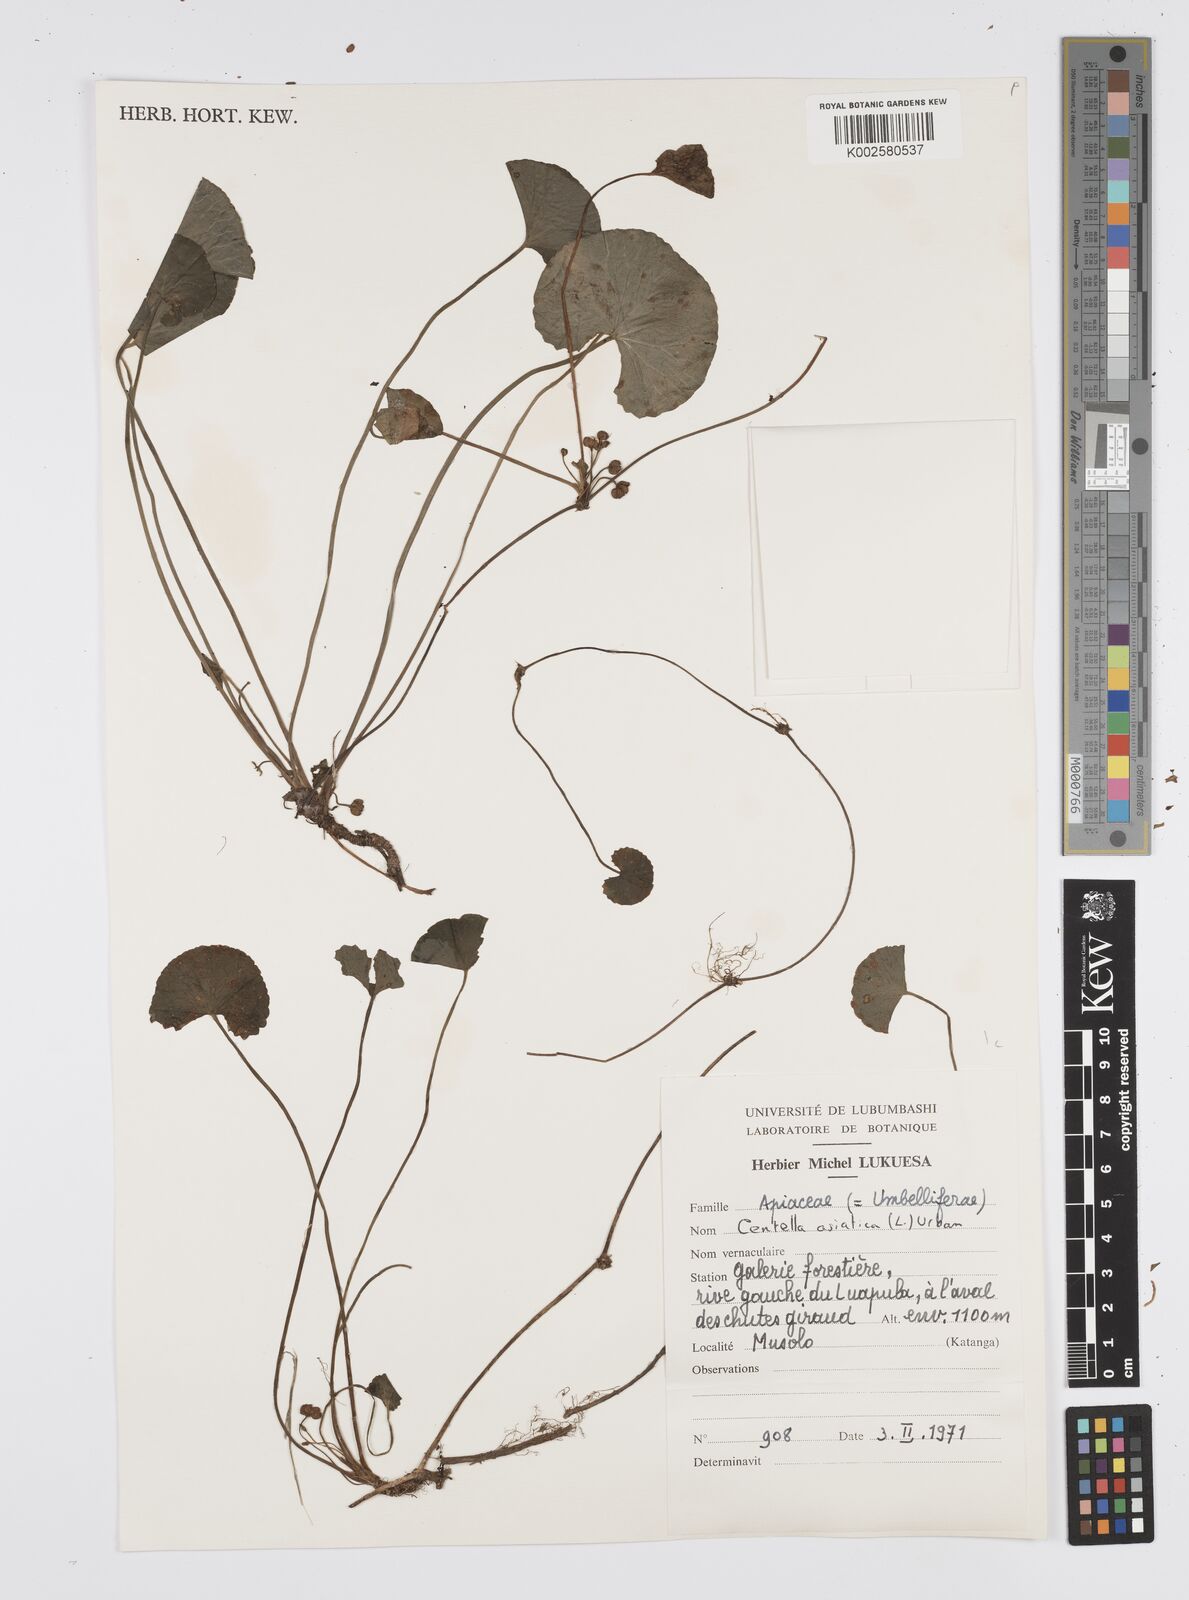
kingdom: Plantae
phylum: Tracheophyta
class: Magnoliopsida
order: Apiales
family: Apiaceae
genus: Centella
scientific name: Centella asiatica
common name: Spadeleaf
